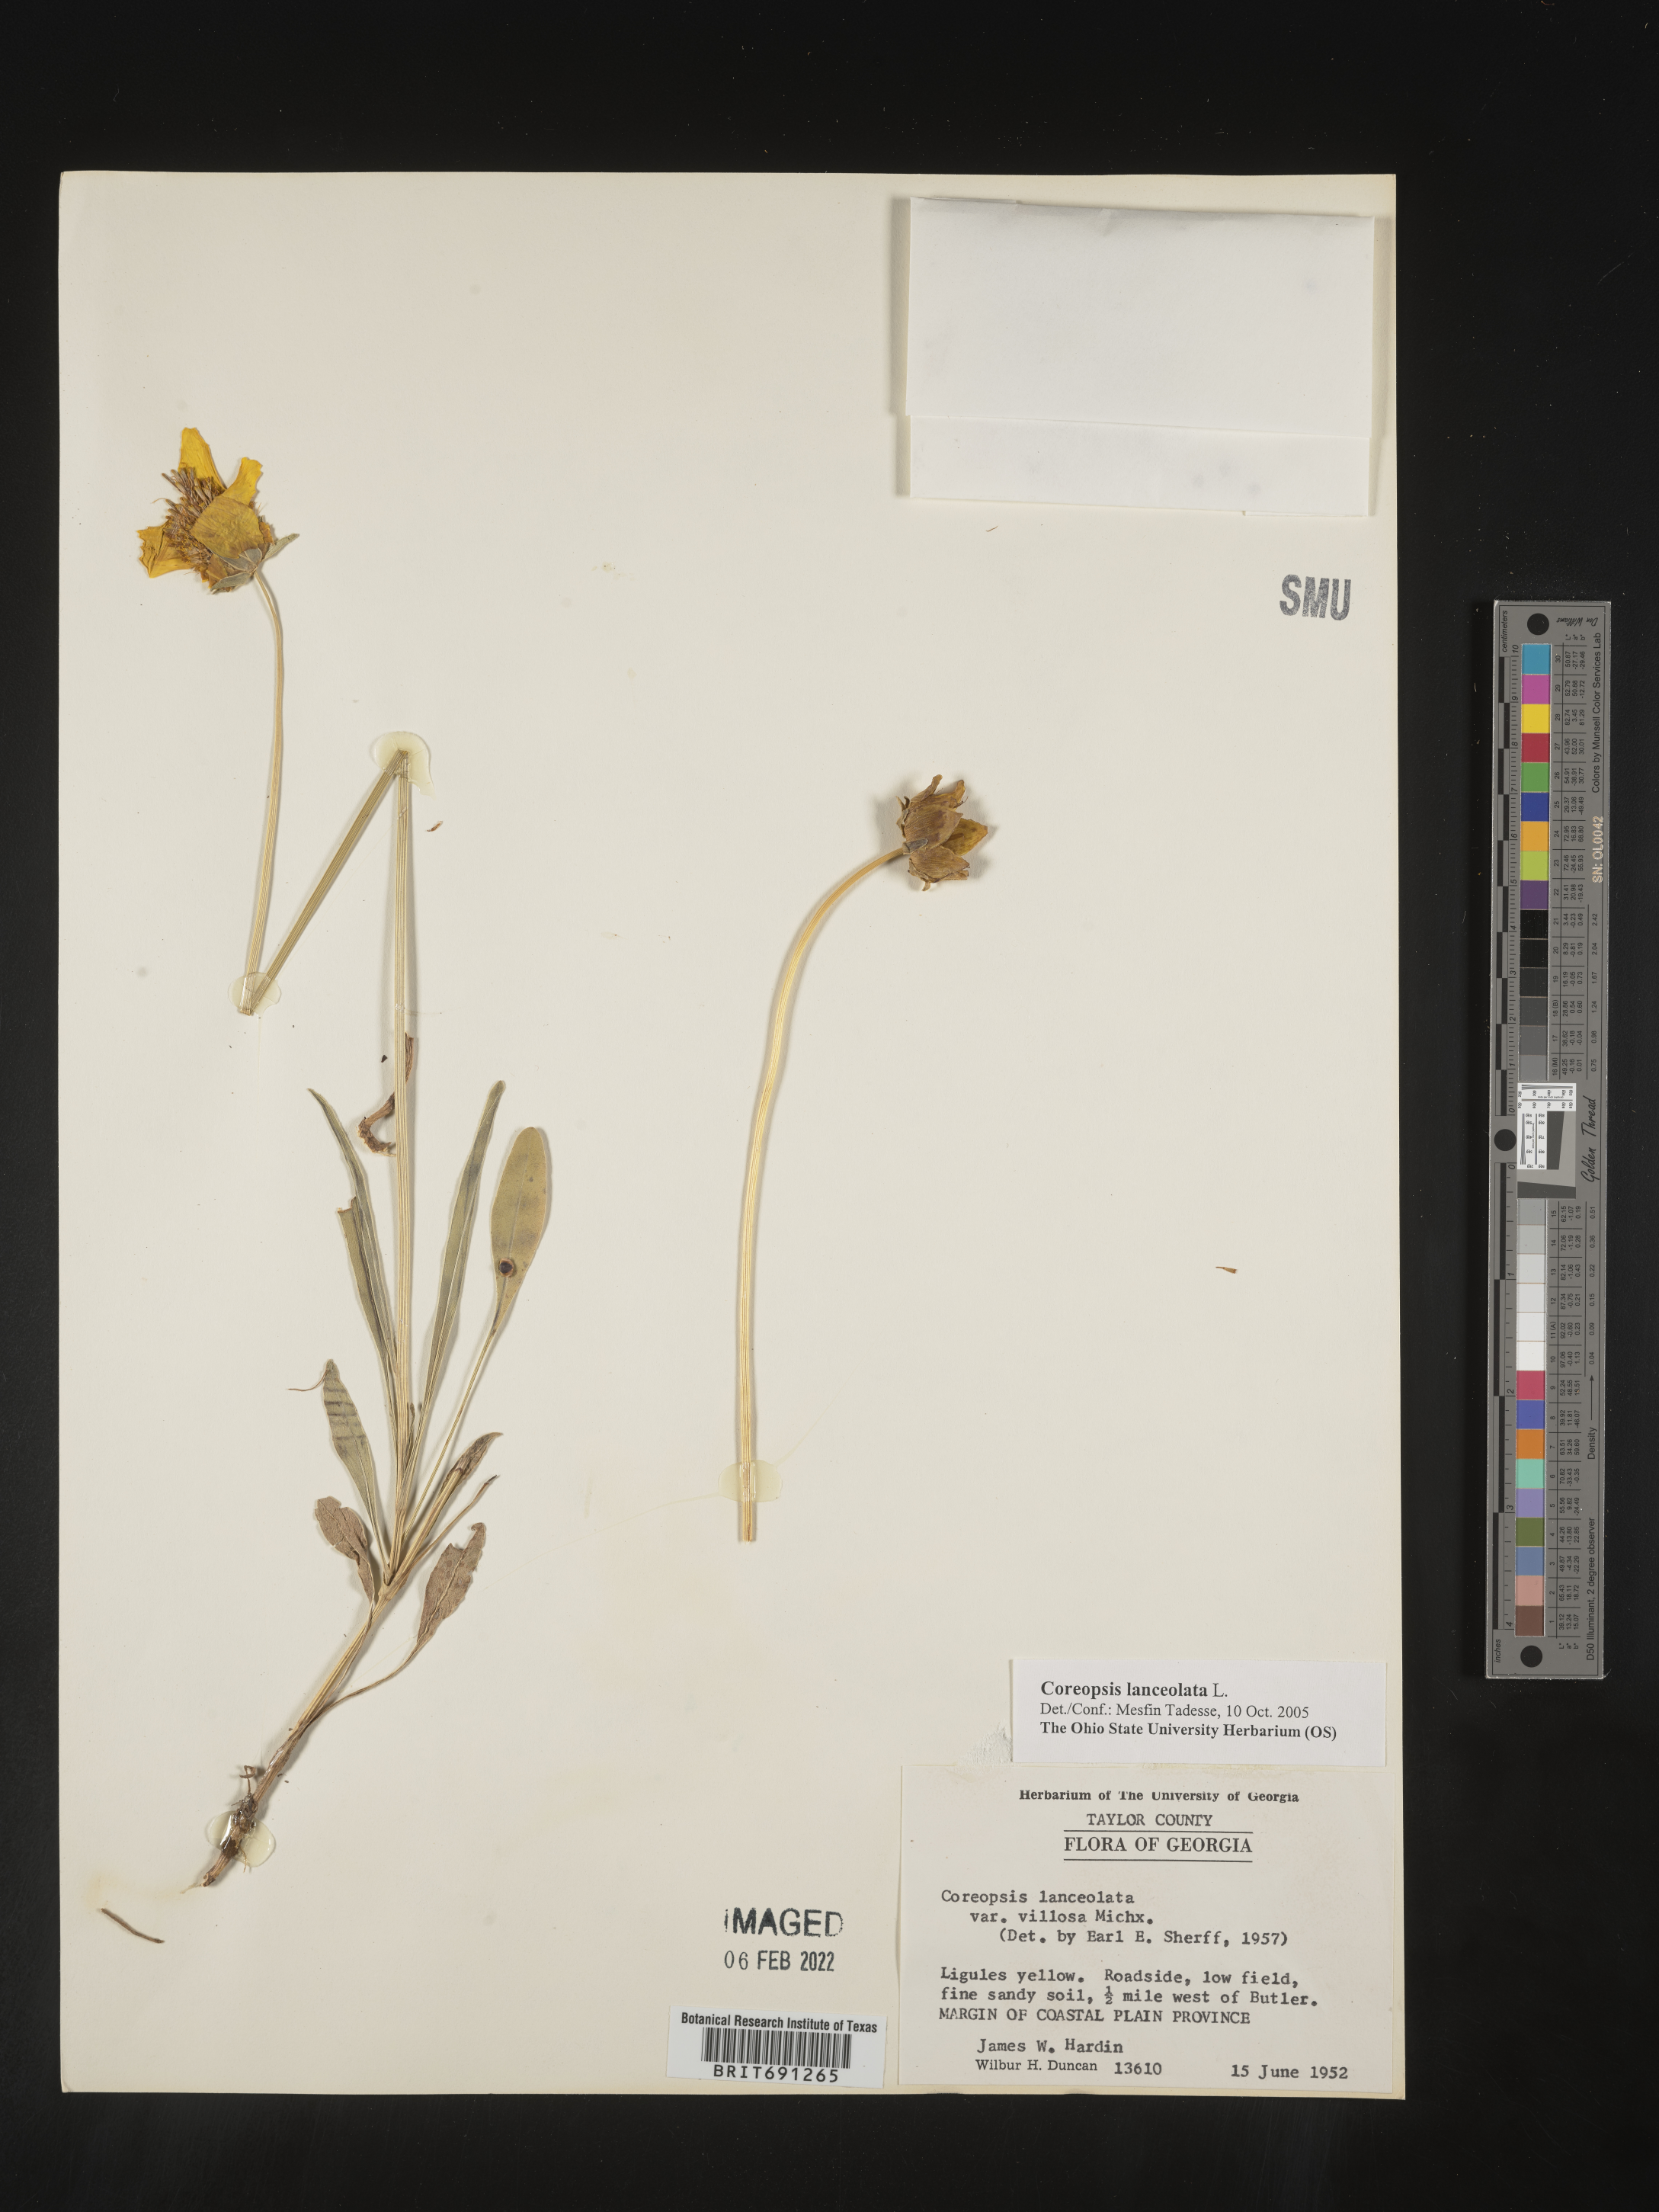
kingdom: Plantae
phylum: Tracheophyta
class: Magnoliopsida
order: Asterales
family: Asteraceae
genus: Coreopsis
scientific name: Coreopsis lanceolata
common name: Garden coreopsis
